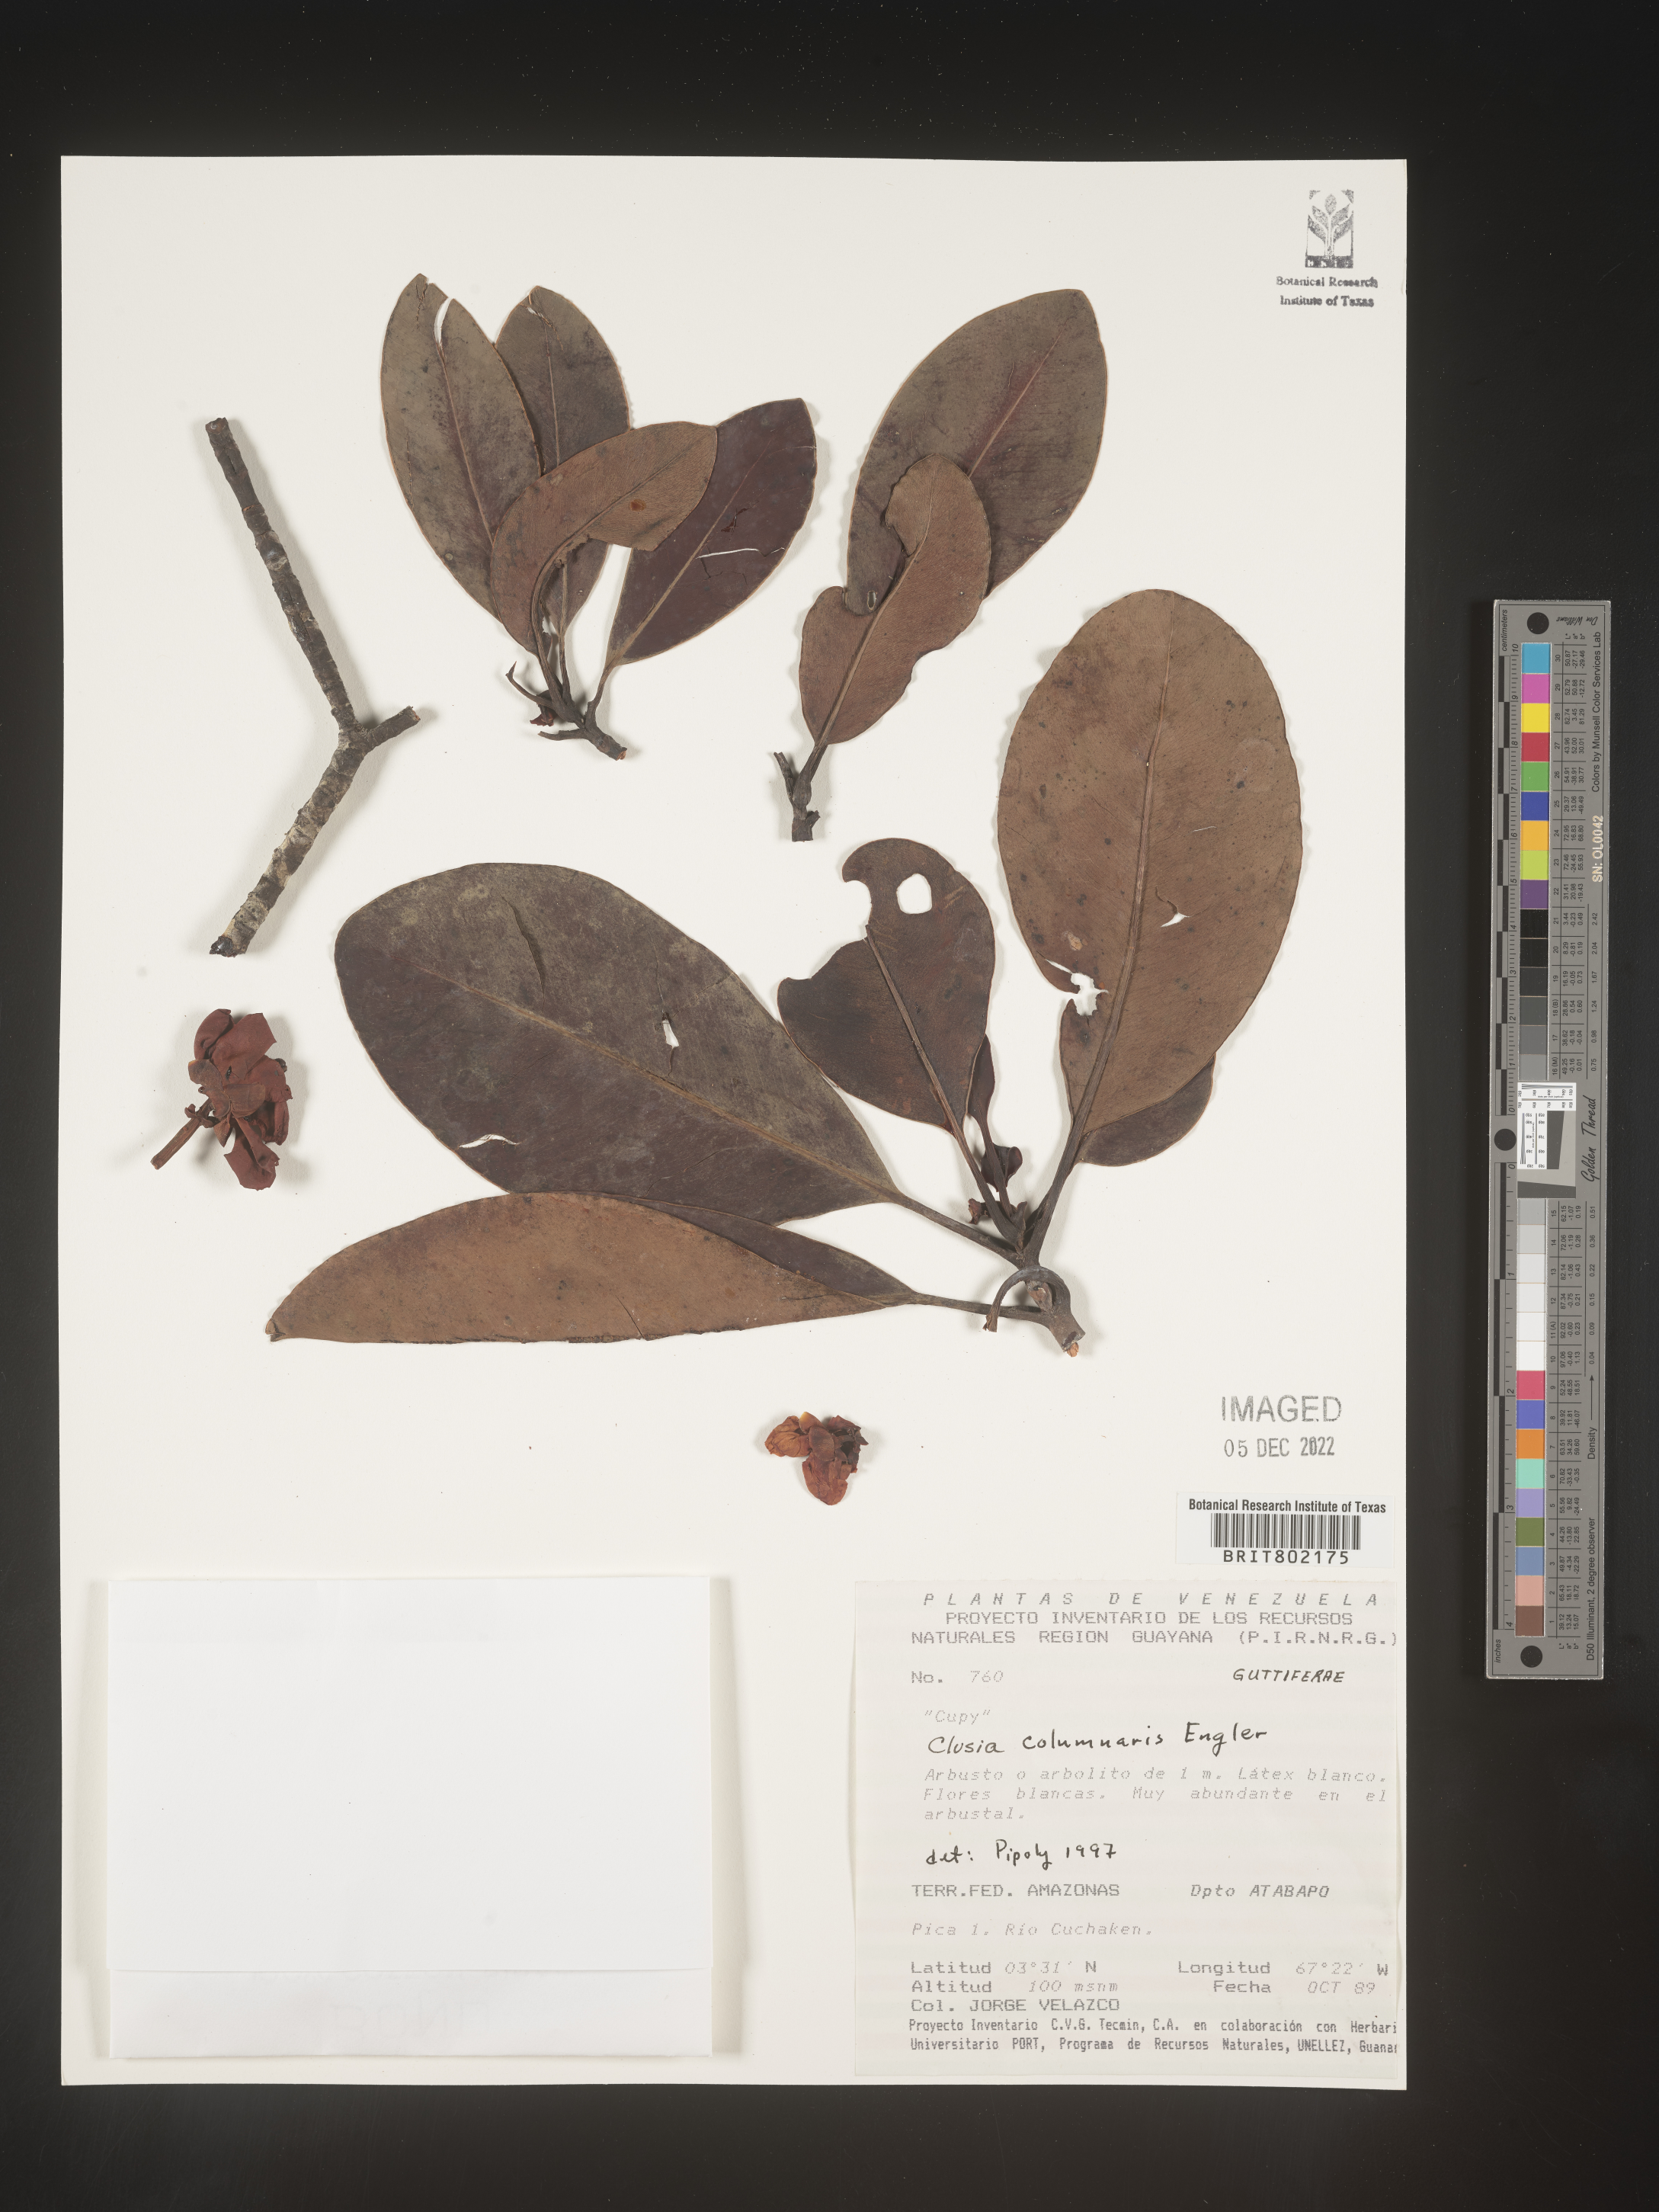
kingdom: Plantae
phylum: Tracheophyta
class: Magnoliopsida
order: Malpighiales
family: Clusiaceae
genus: Clusia
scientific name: Clusia columnaris
